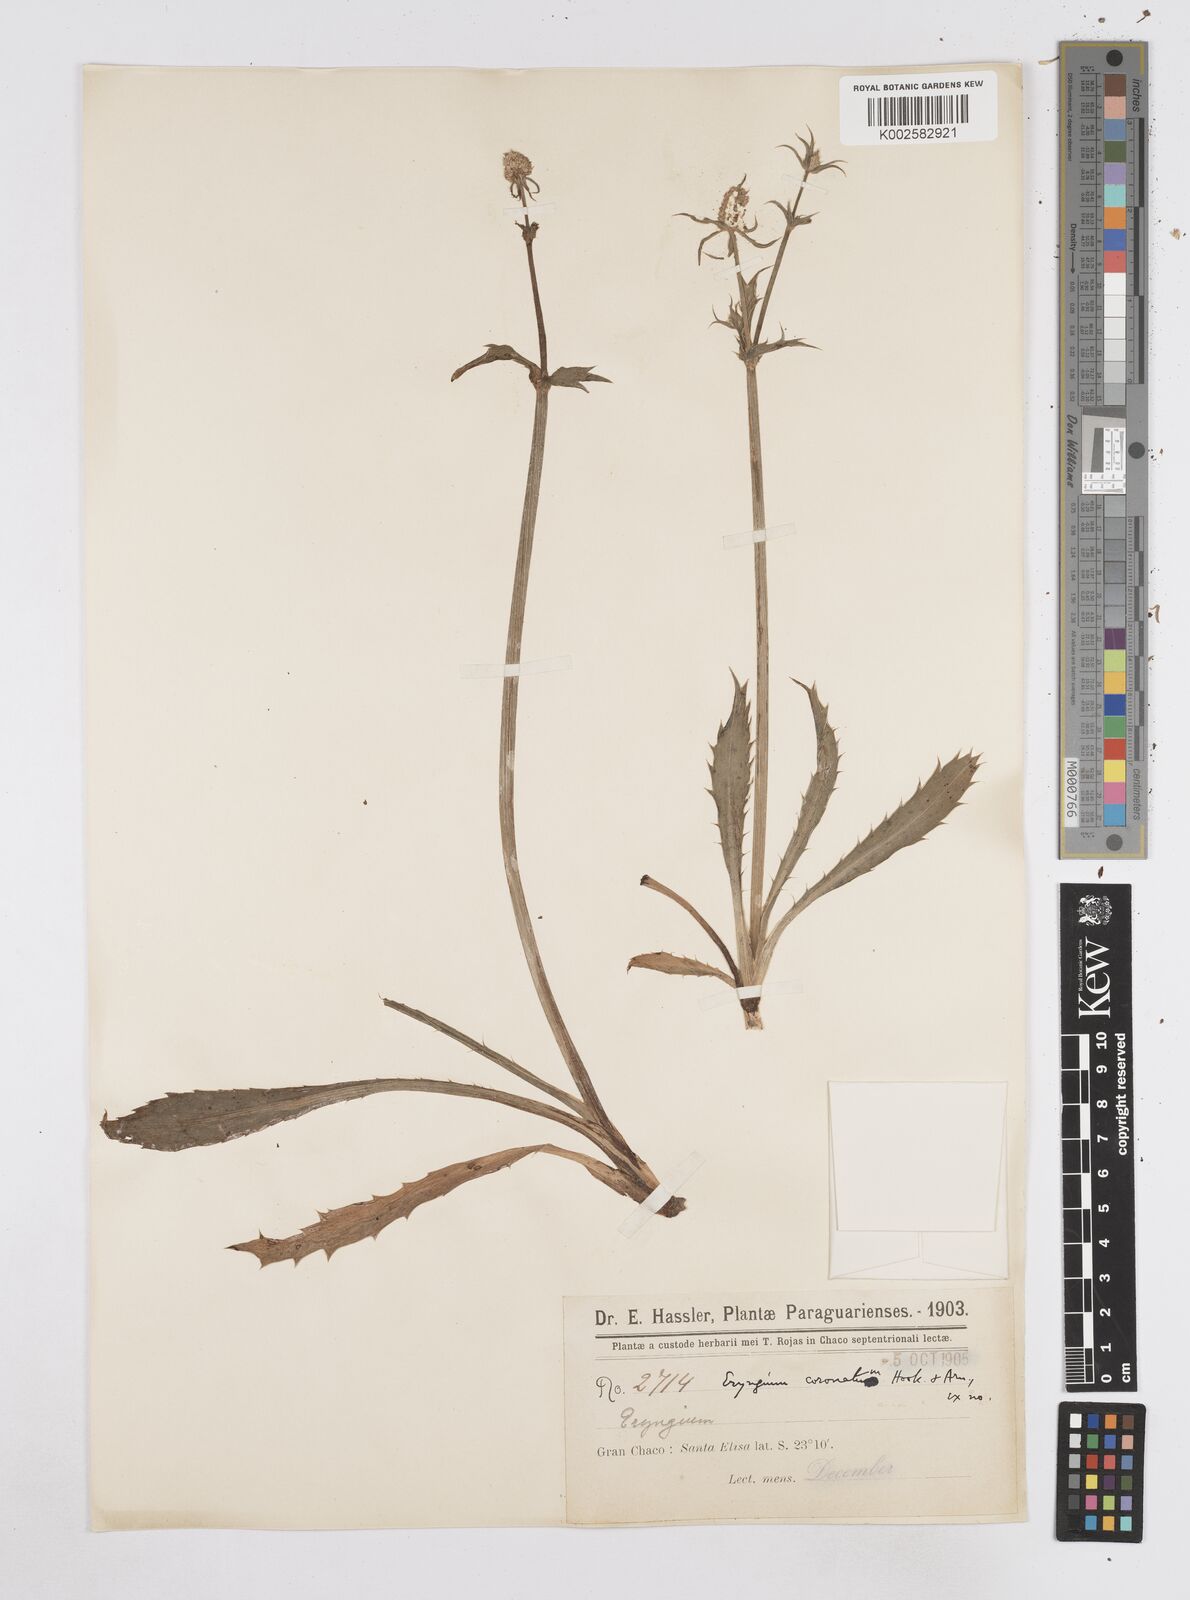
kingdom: Plantae
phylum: Tracheophyta
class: Magnoliopsida
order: Apiales
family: Apiaceae
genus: Eryngium
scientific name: Eryngium coronatum
